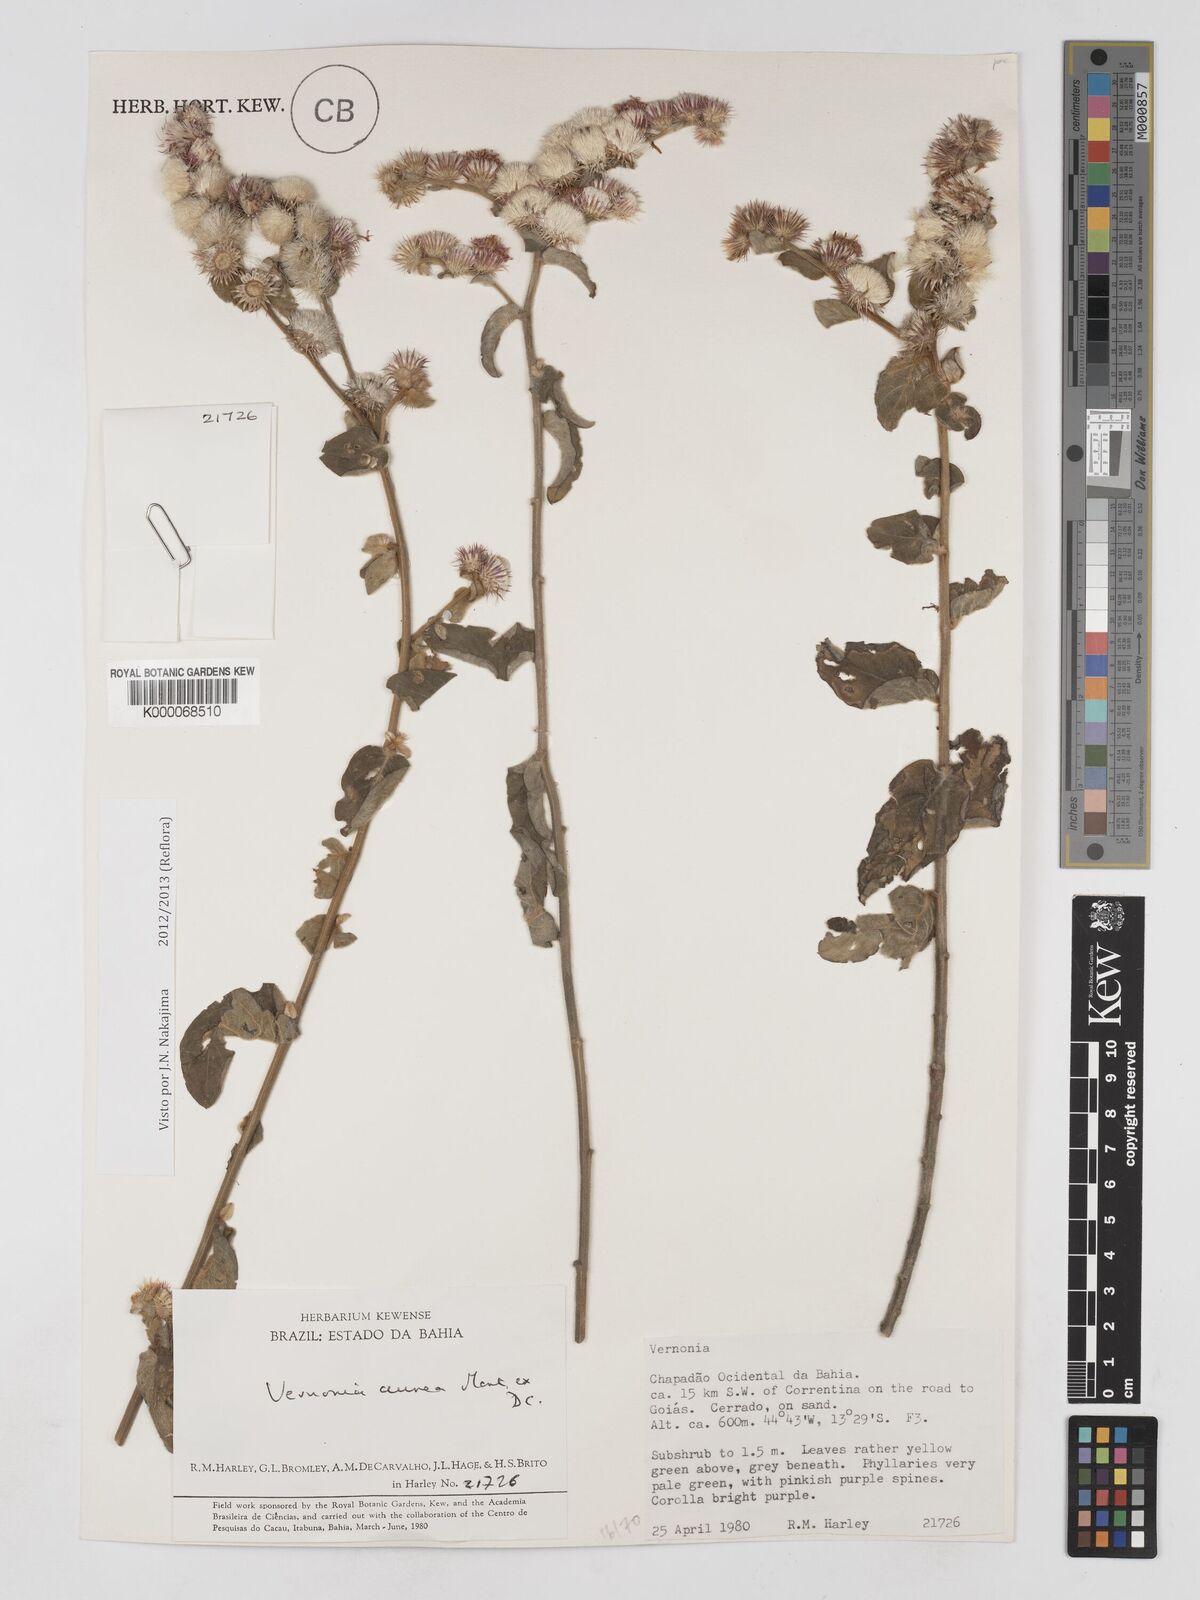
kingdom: Plantae
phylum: Tracheophyta
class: Magnoliopsida
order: Asterales
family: Asteraceae
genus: Lepidaploa
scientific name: Lepidaploa aurea
